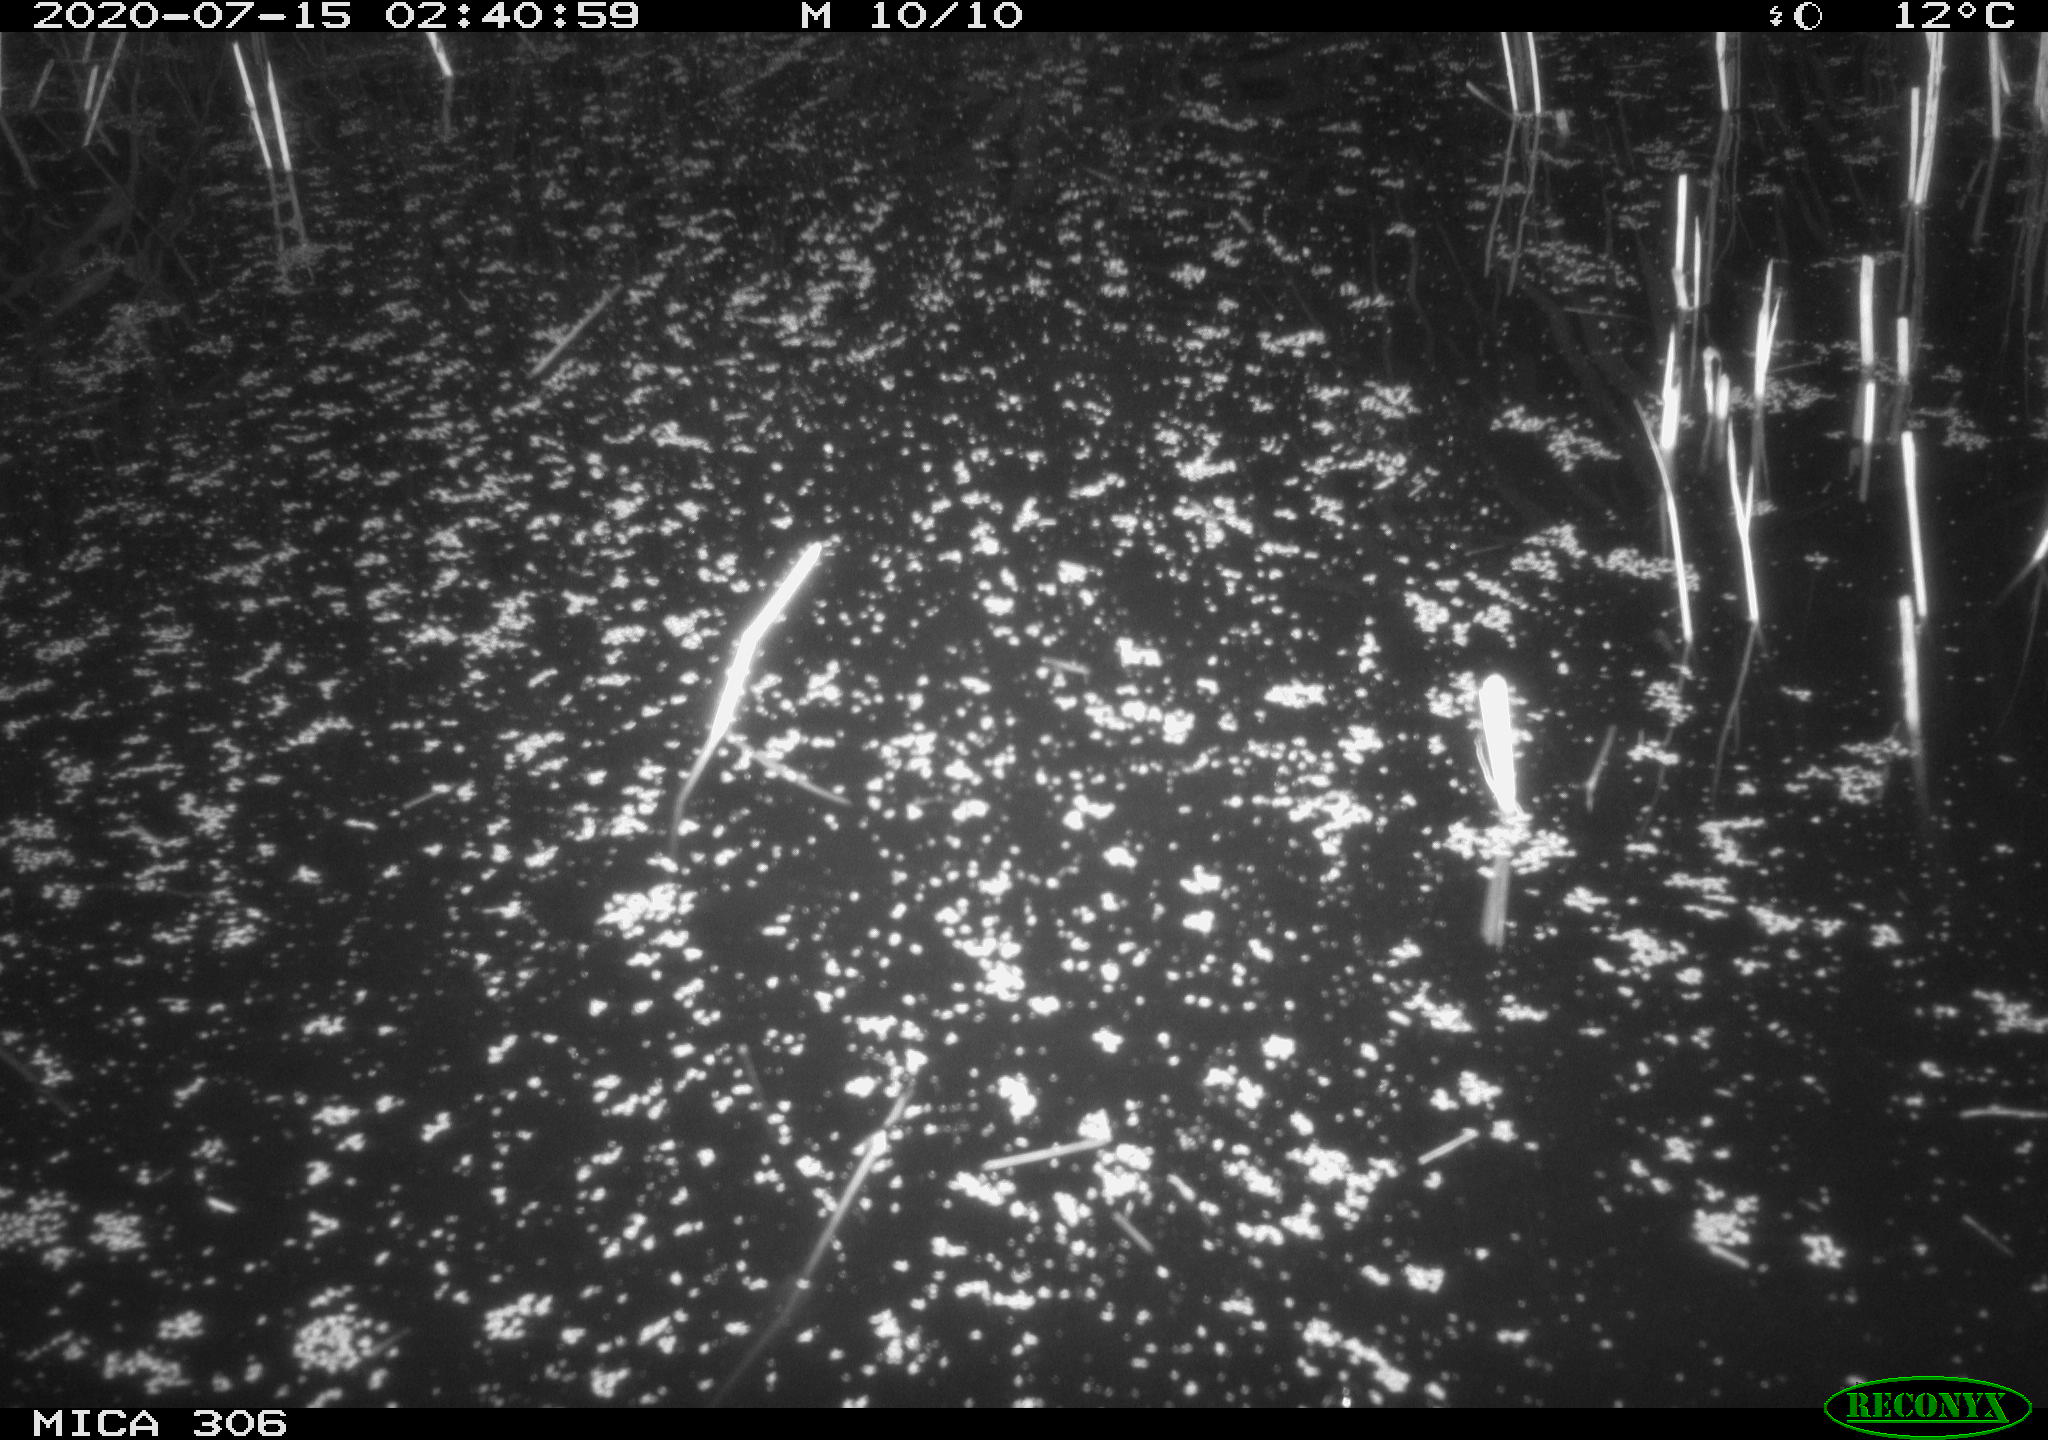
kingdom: Animalia
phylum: Chordata
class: Mammalia
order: Rodentia
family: Cricetidae
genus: Ondatra
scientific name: Ondatra zibethicus
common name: Muskrat
